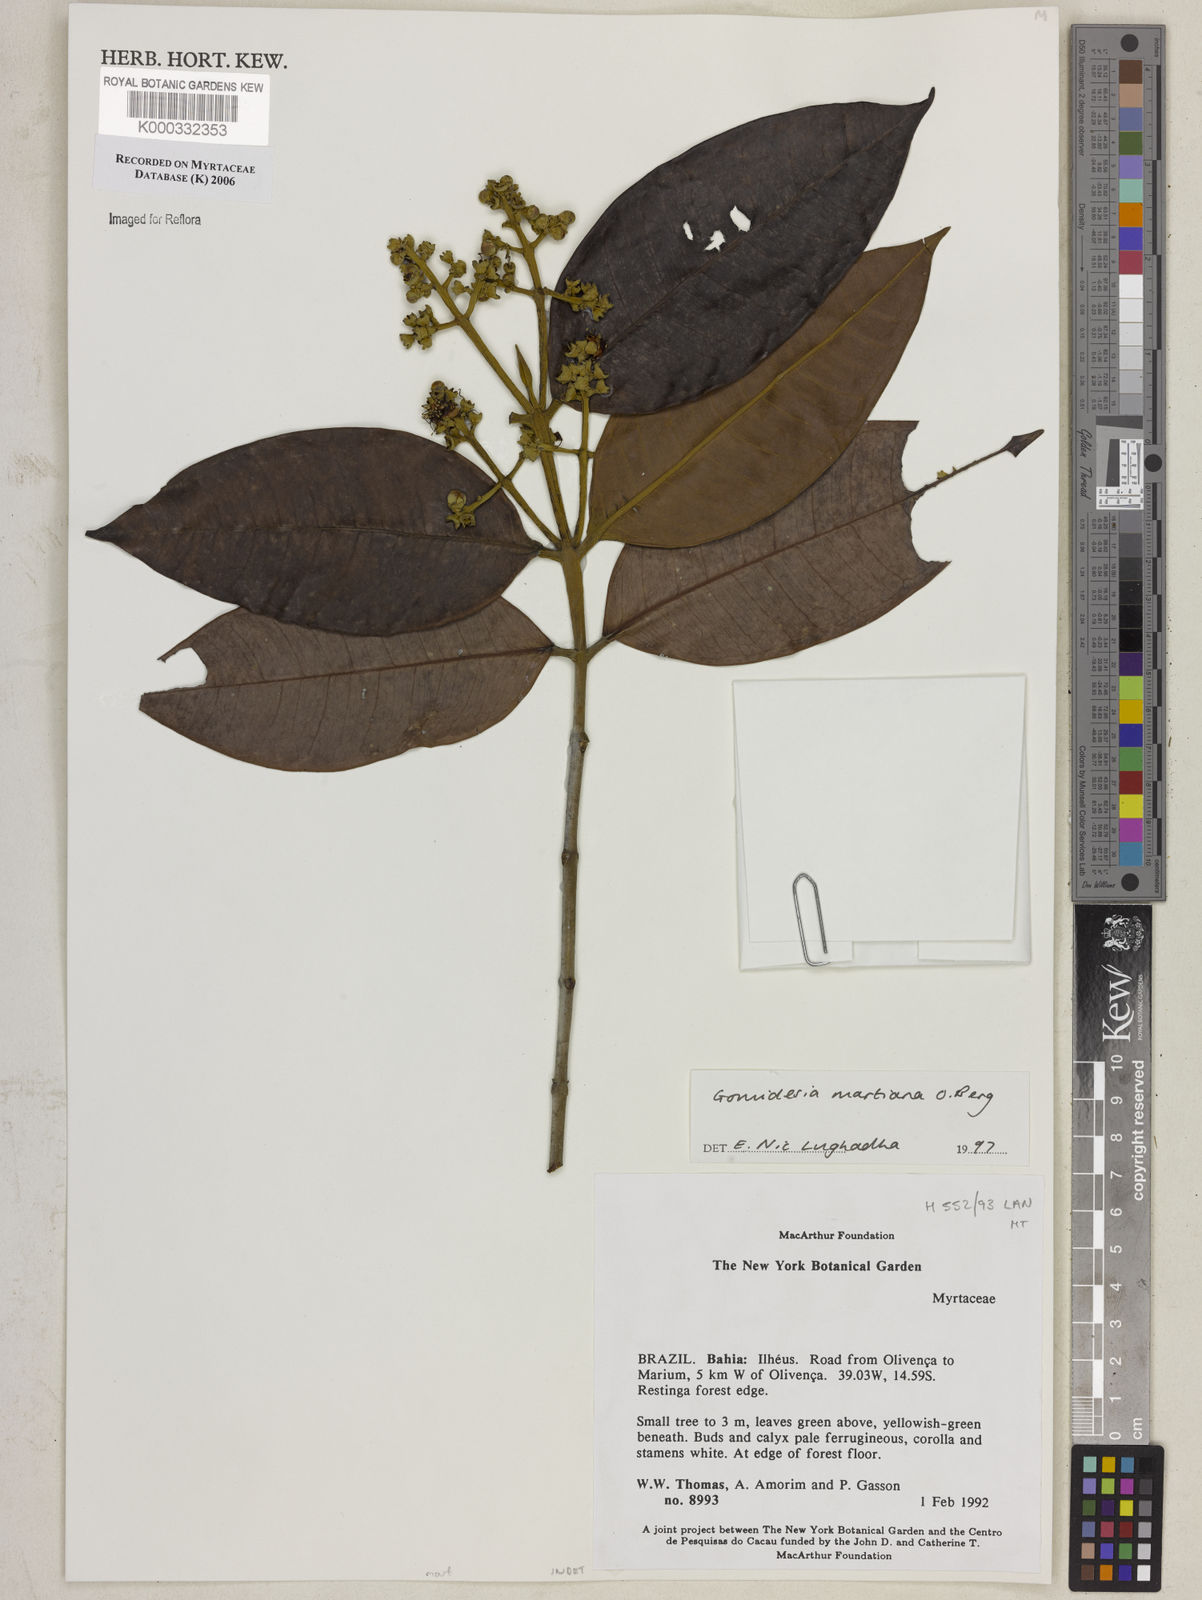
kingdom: Plantae
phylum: Tracheophyta
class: Magnoliopsida
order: Myrtales
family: Myrtaceae
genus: Myrcia
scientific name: Myrcia vittoriana
